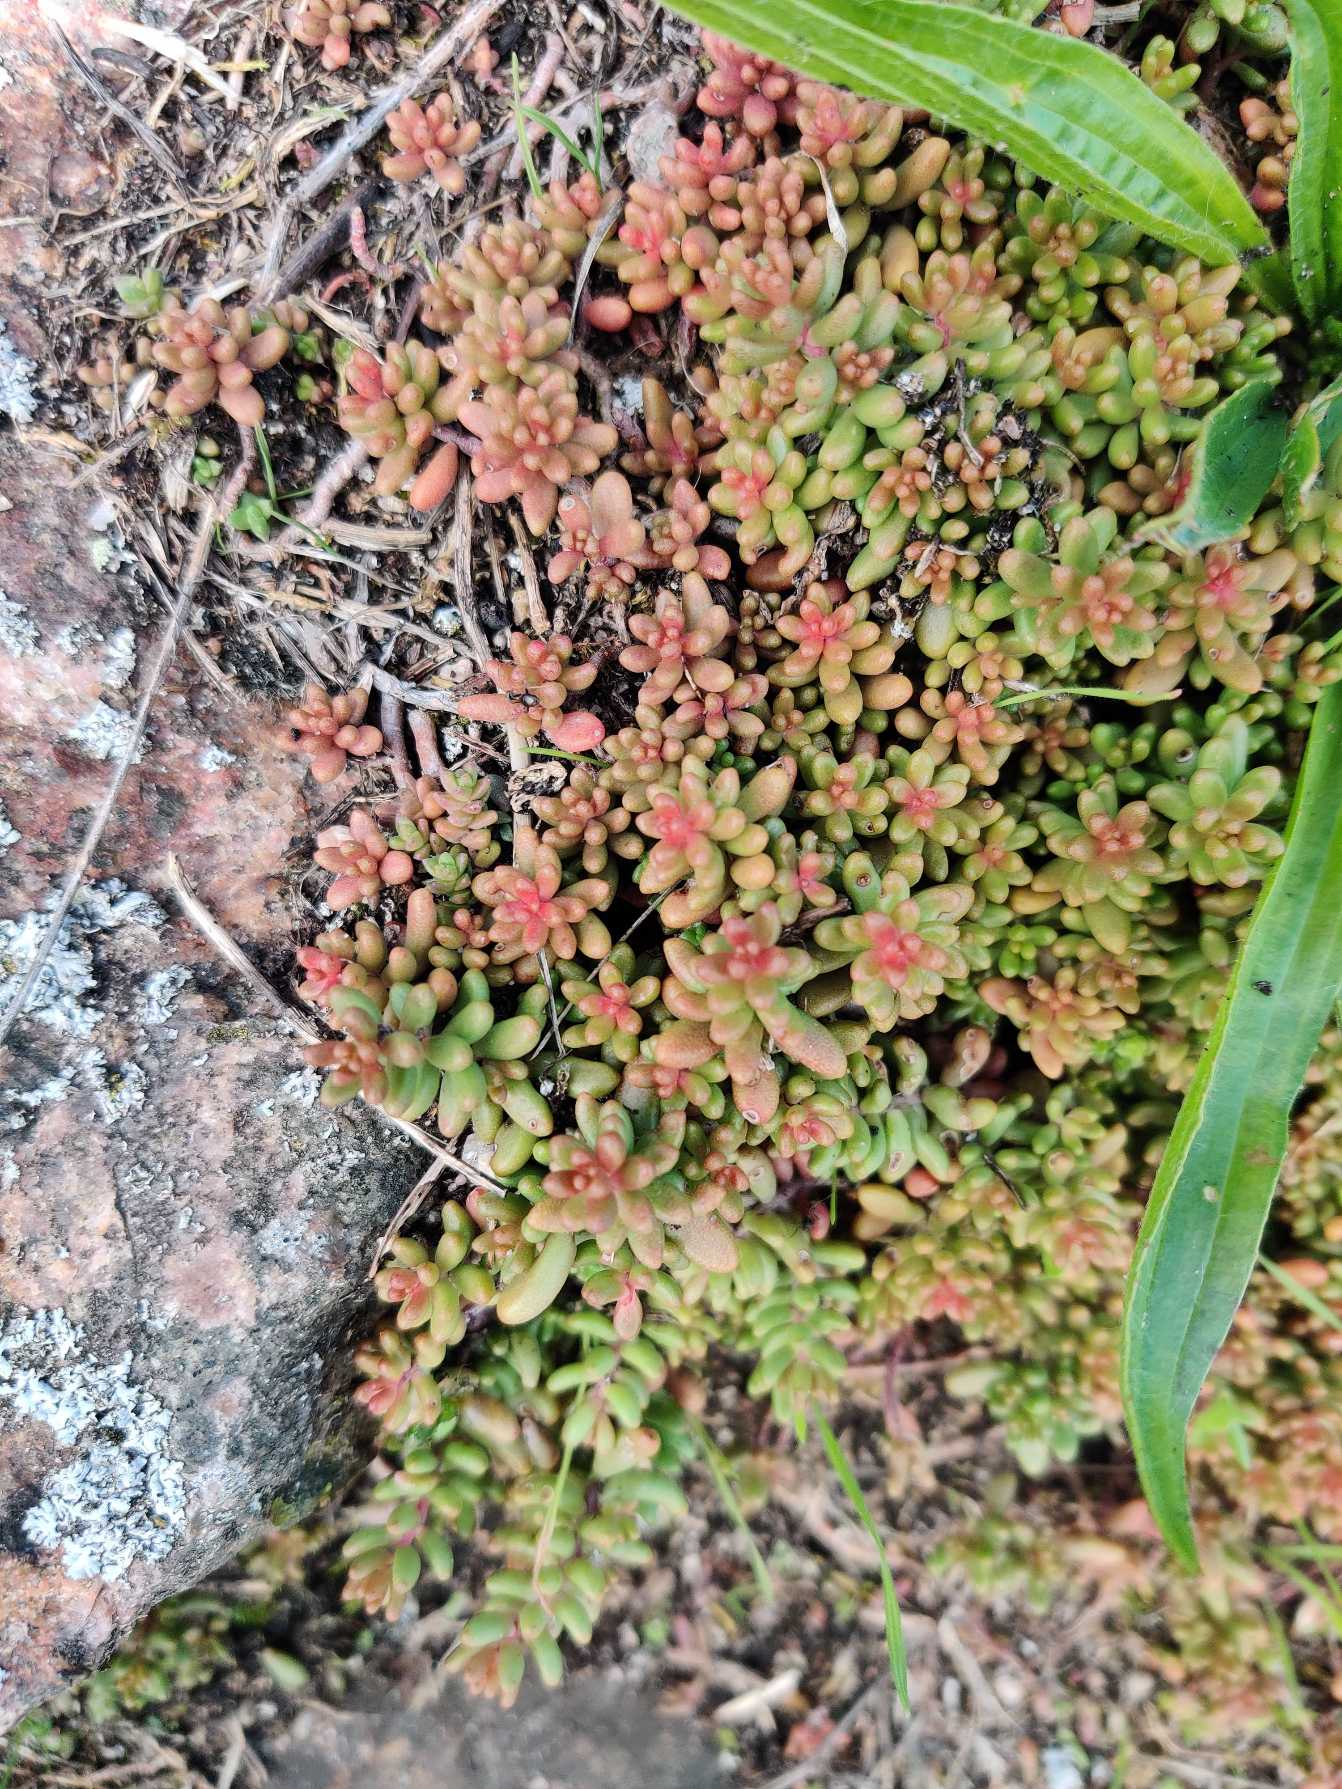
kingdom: Plantae
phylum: Tracheophyta
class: Magnoliopsida
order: Saxifragales
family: Crassulaceae
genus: Sedum
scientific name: Sedum album
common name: Hvid stenurt
